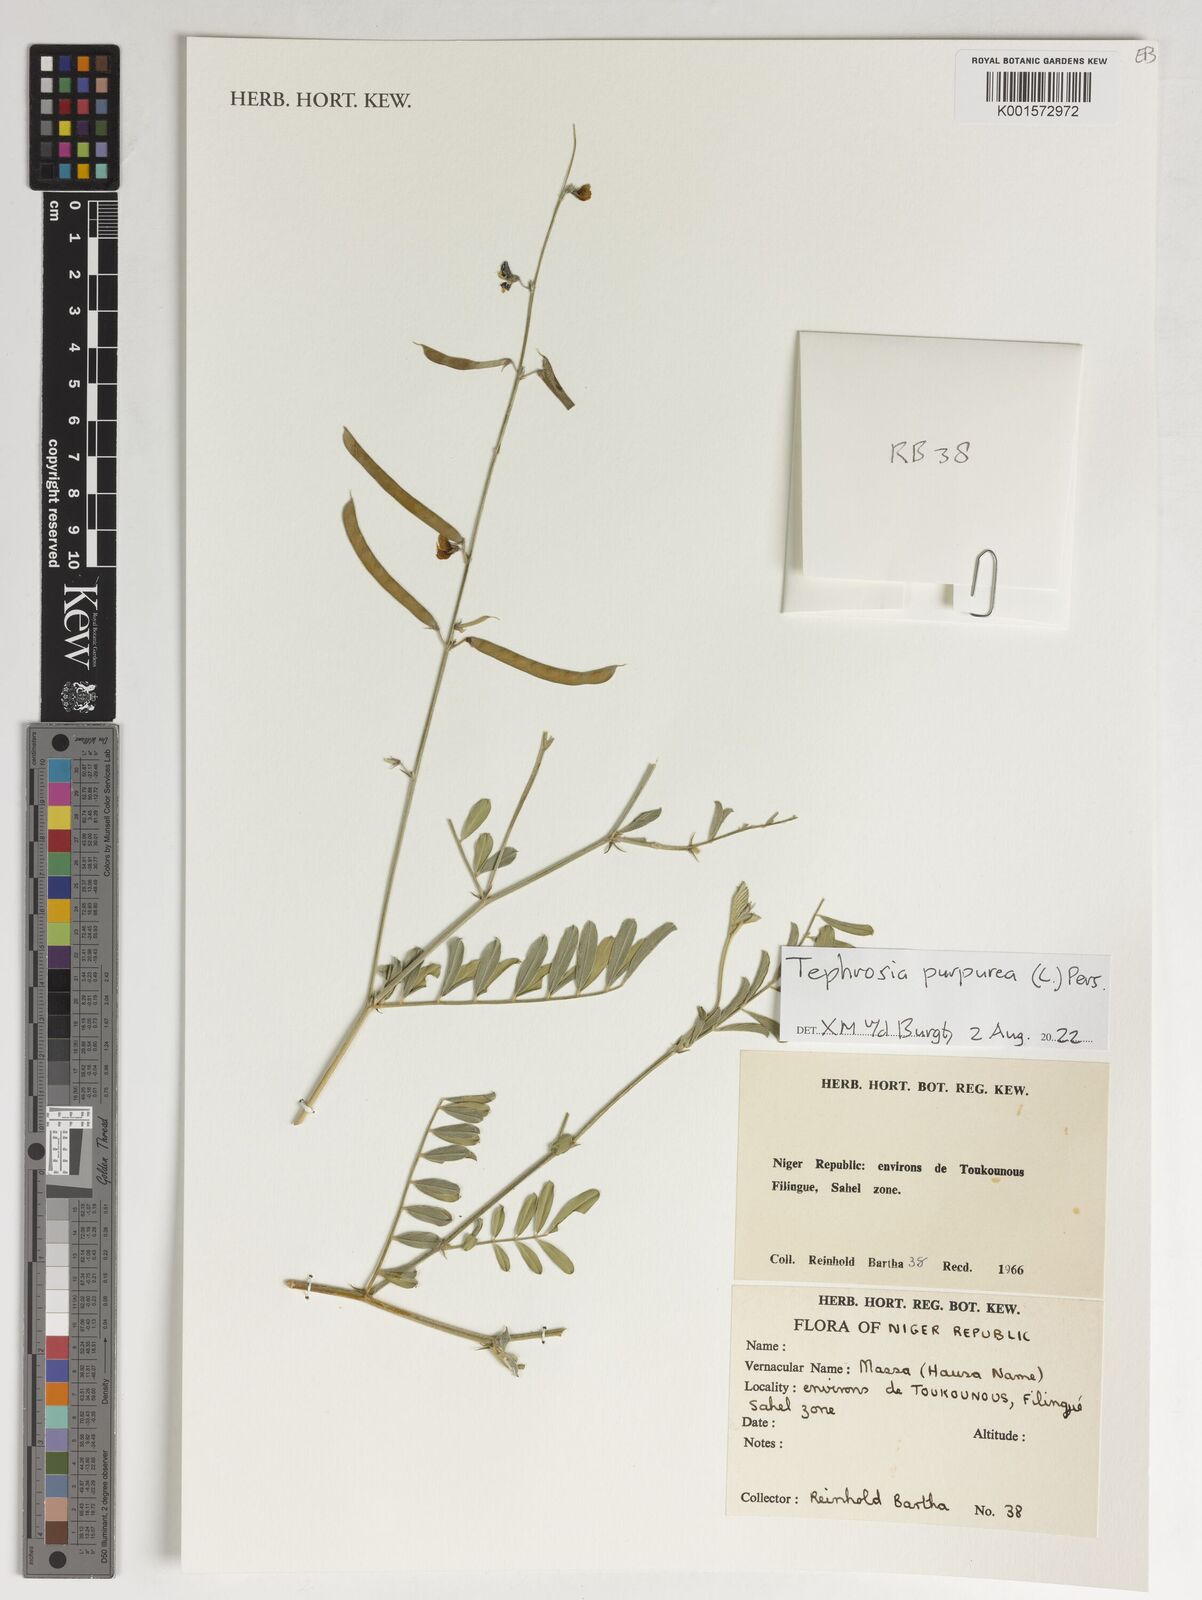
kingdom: Plantae
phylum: Tracheophyta
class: Magnoliopsida
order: Fabales
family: Fabaceae
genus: Tephrosia
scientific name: Tephrosia purpurea
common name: Fishpoison
